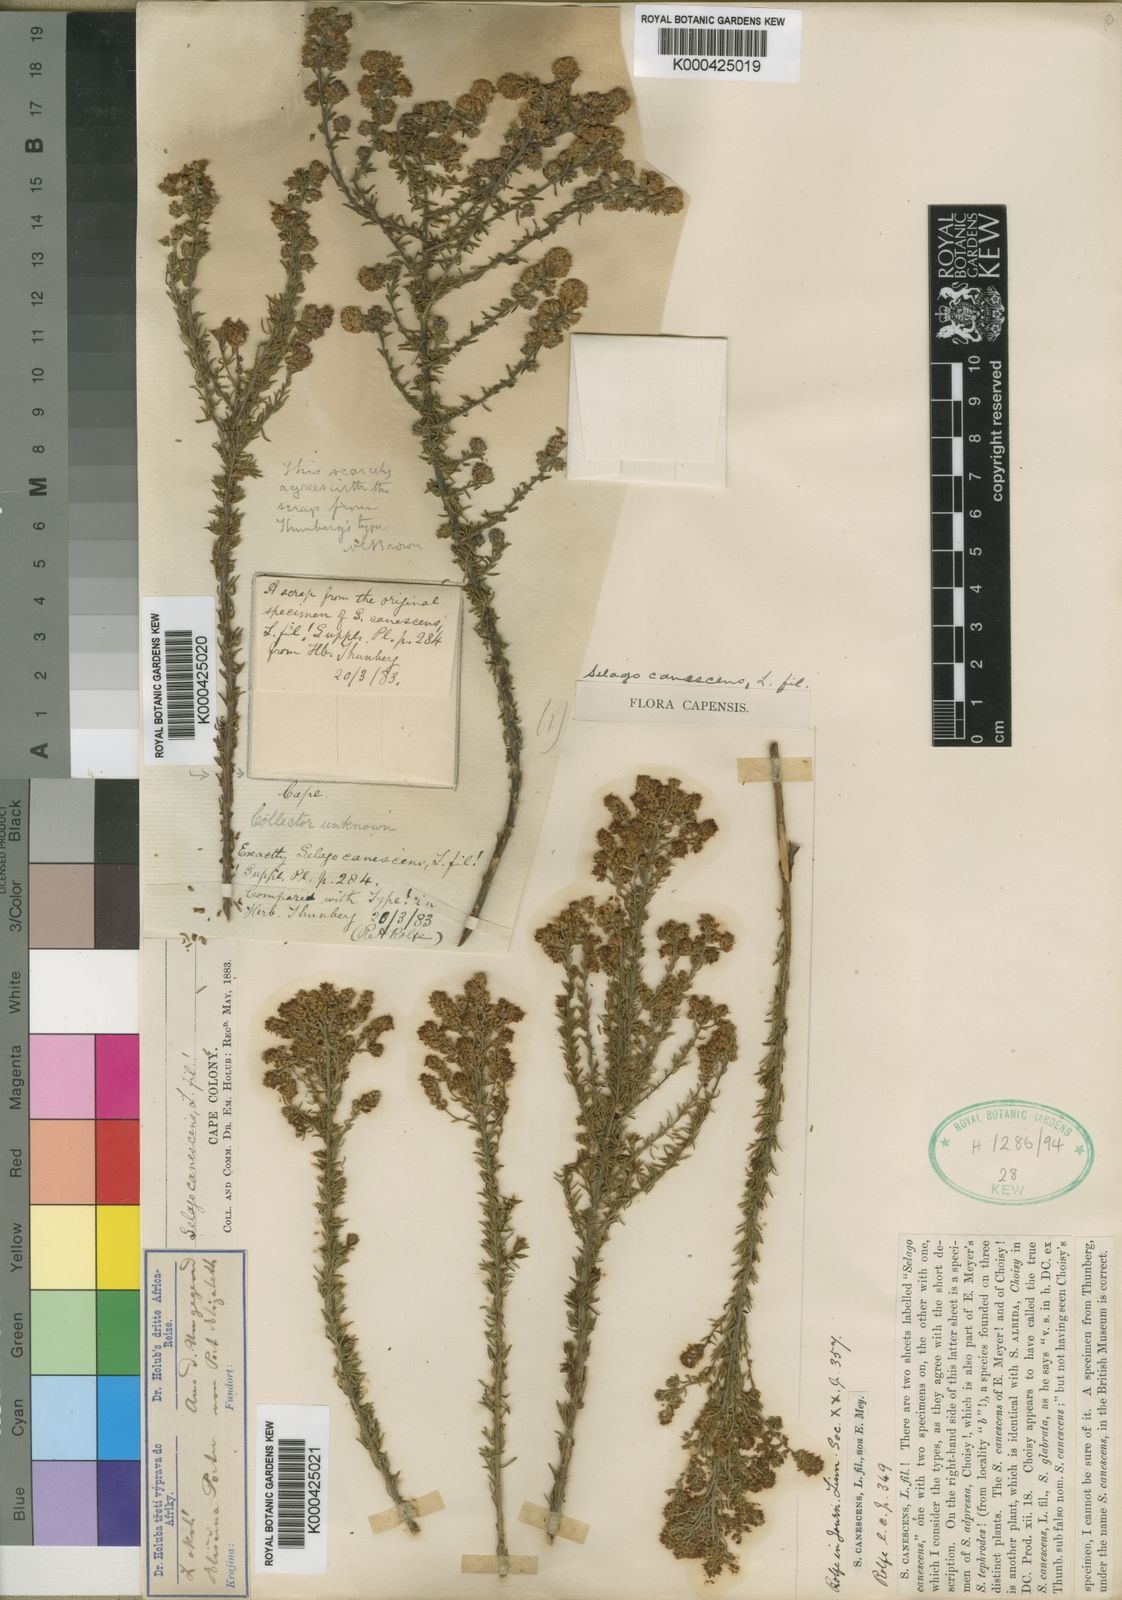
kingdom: Plantae
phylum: Tracheophyta
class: Magnoliopsida
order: Lamiales
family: Scrophulariaceae
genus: Selago
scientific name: Selago canescens
